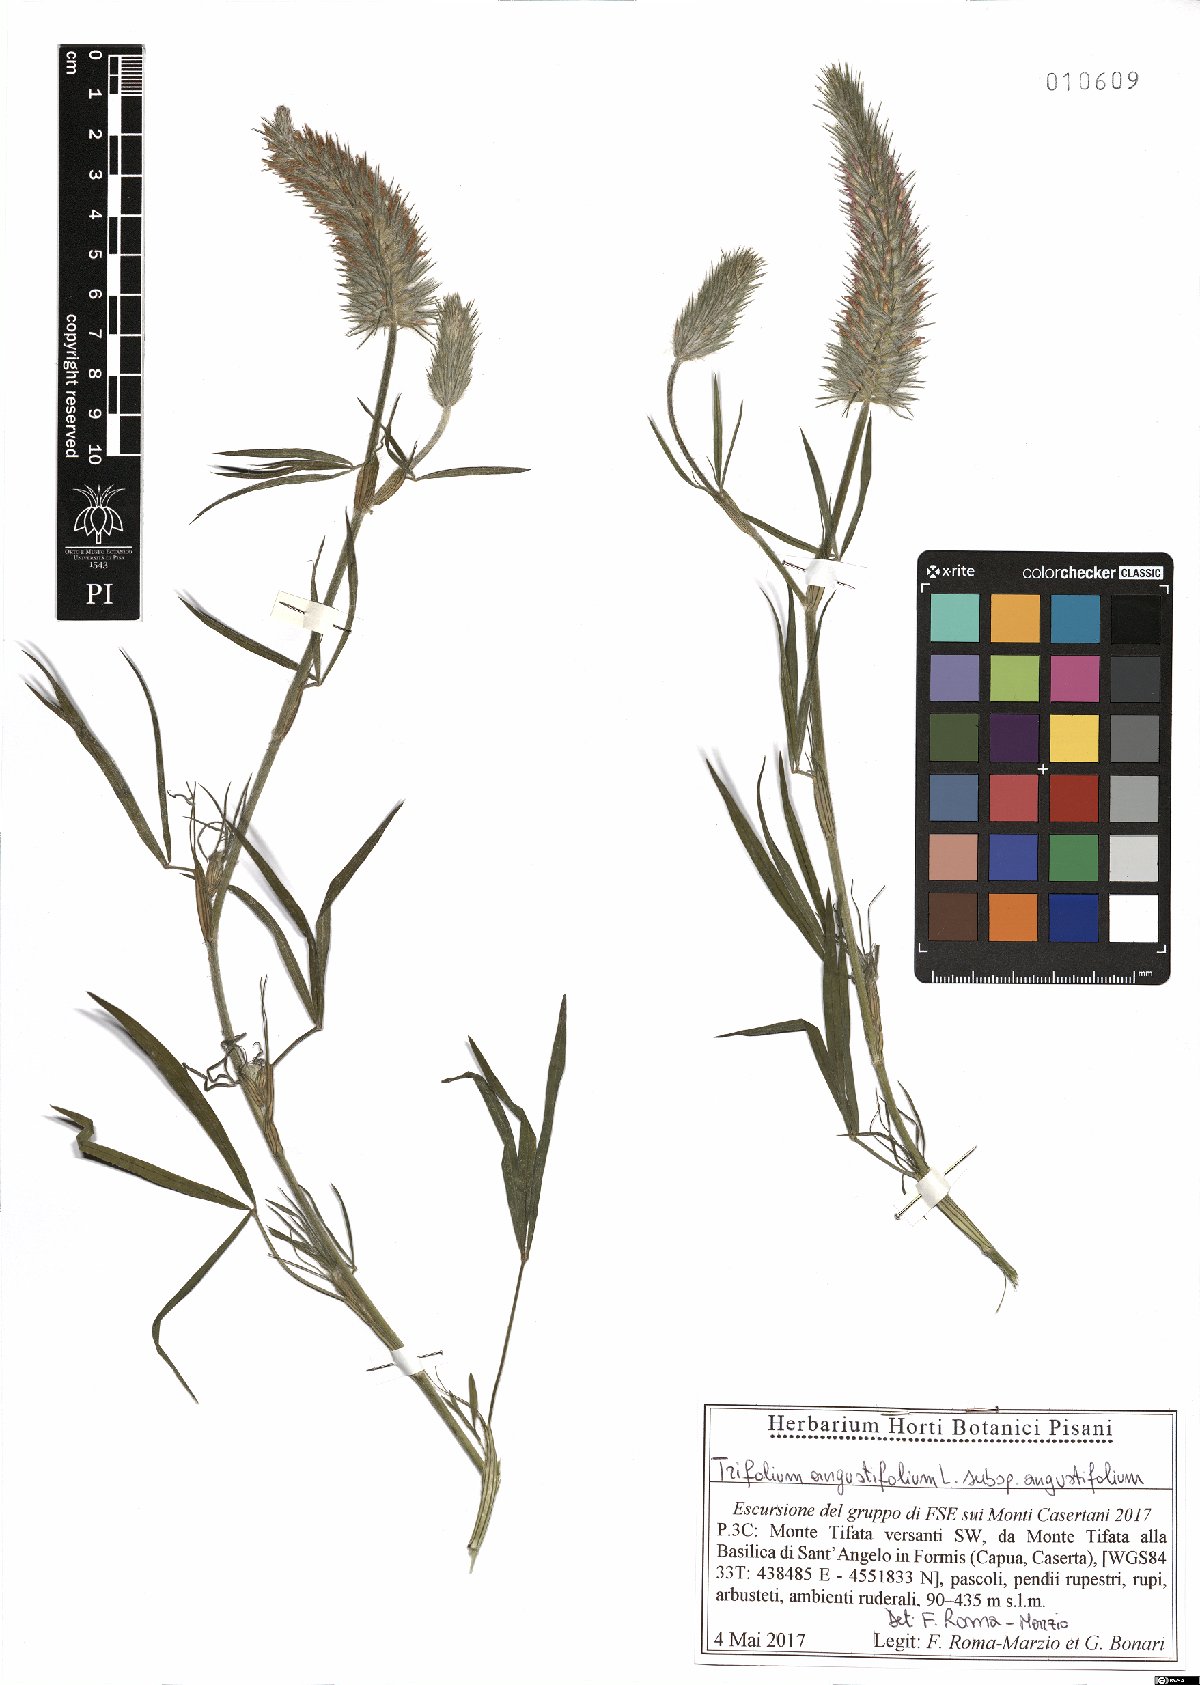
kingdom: Plantae
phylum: Tracheophyta
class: Magnoliopsida
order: Fabales
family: Fabaceae
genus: Trifolium
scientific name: Trifolium angustifolium
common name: Narrow clover
